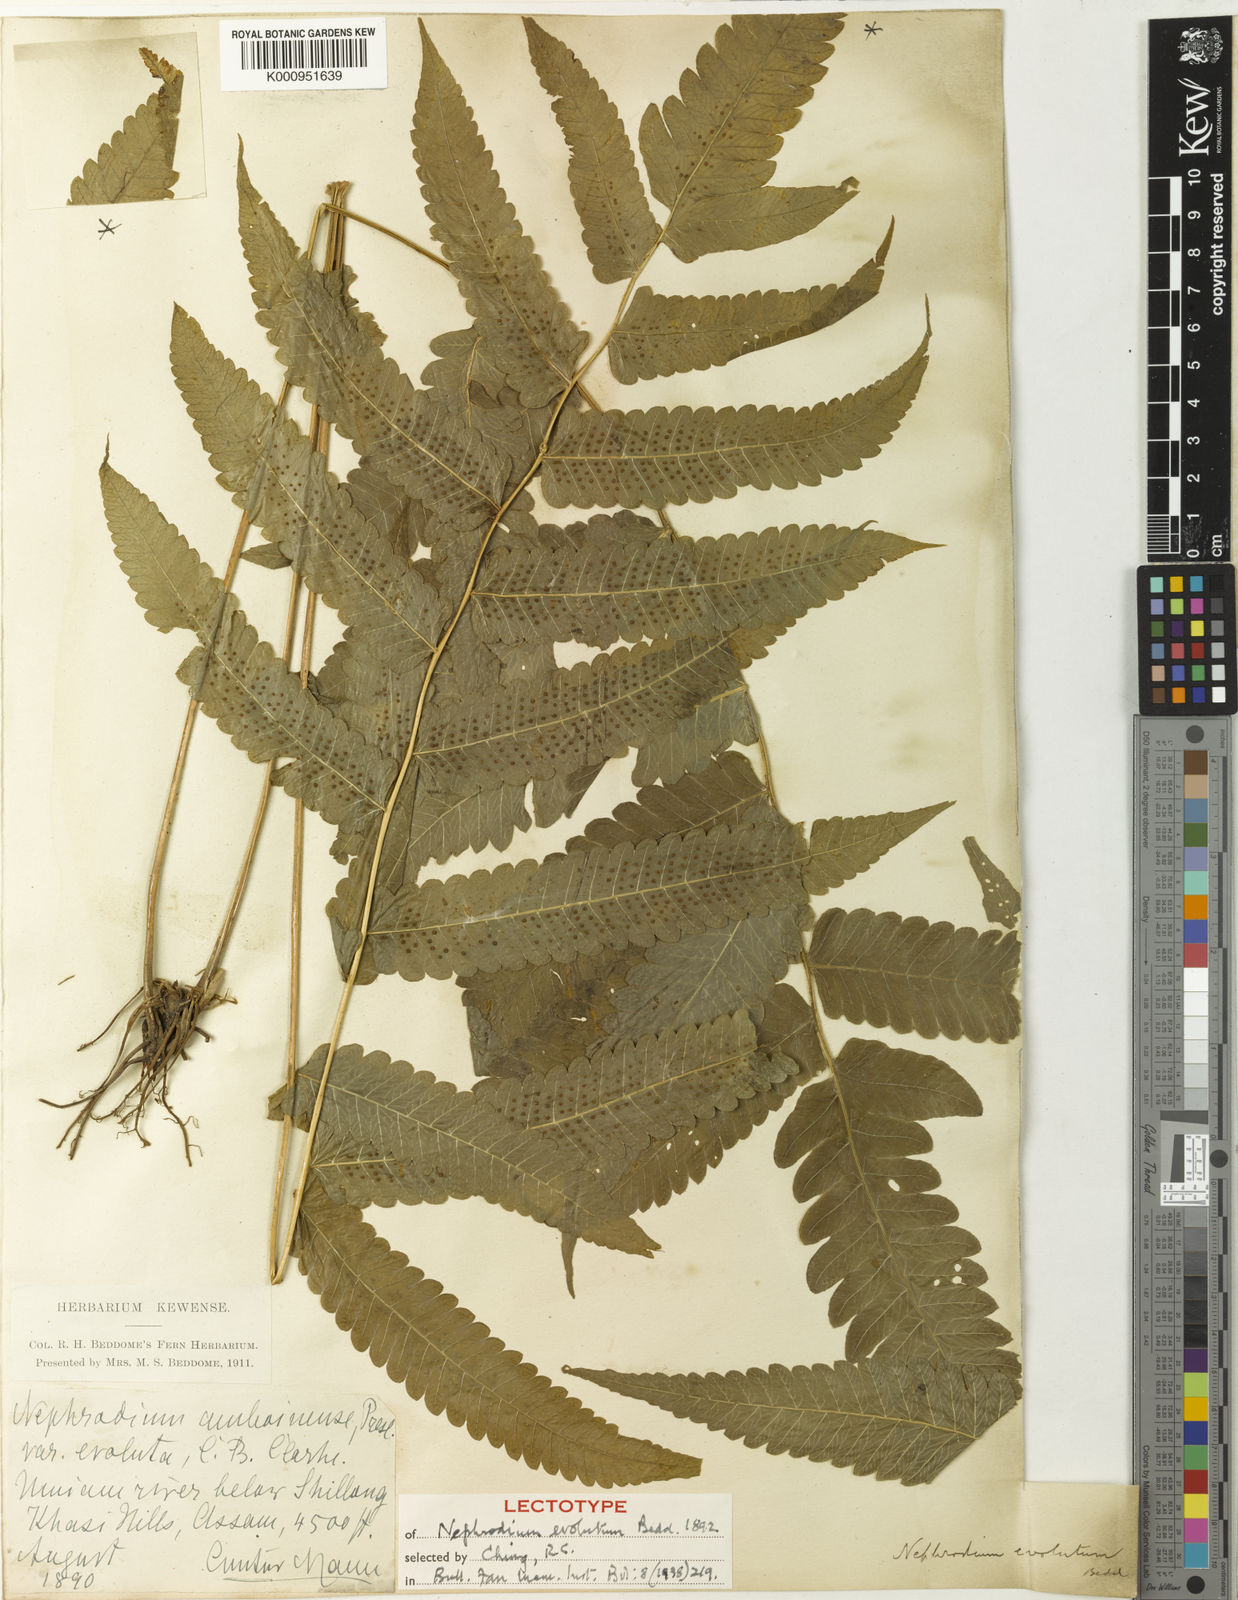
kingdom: Plantae
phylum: Tracheophyta
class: Polypodiopsida
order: Polypodiales
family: Thelypteridaceae
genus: Christella
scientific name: Christella evoluta
